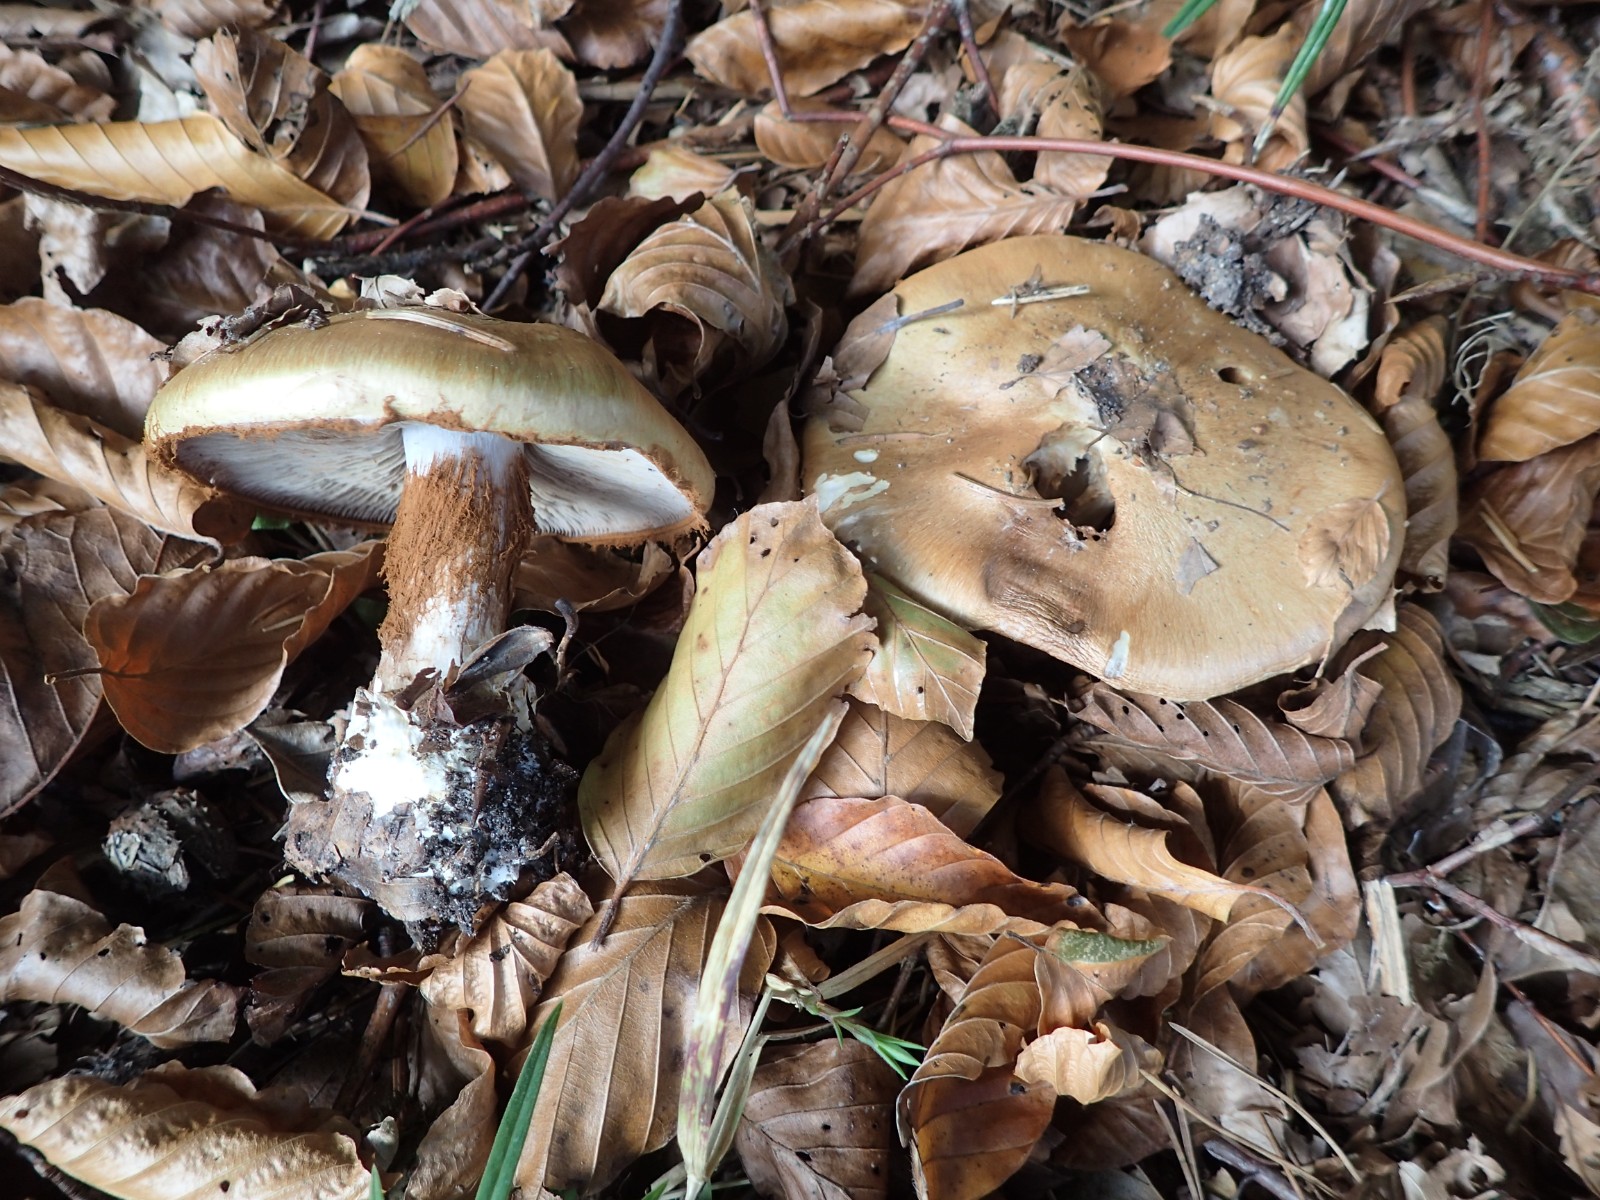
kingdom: Fungi
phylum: Basidiomycota
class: Agaricomycetes
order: Agaricales
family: Cortinariaceae
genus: Cortinarius
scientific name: Cortinarius anserinus
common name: bøge-slørhat
